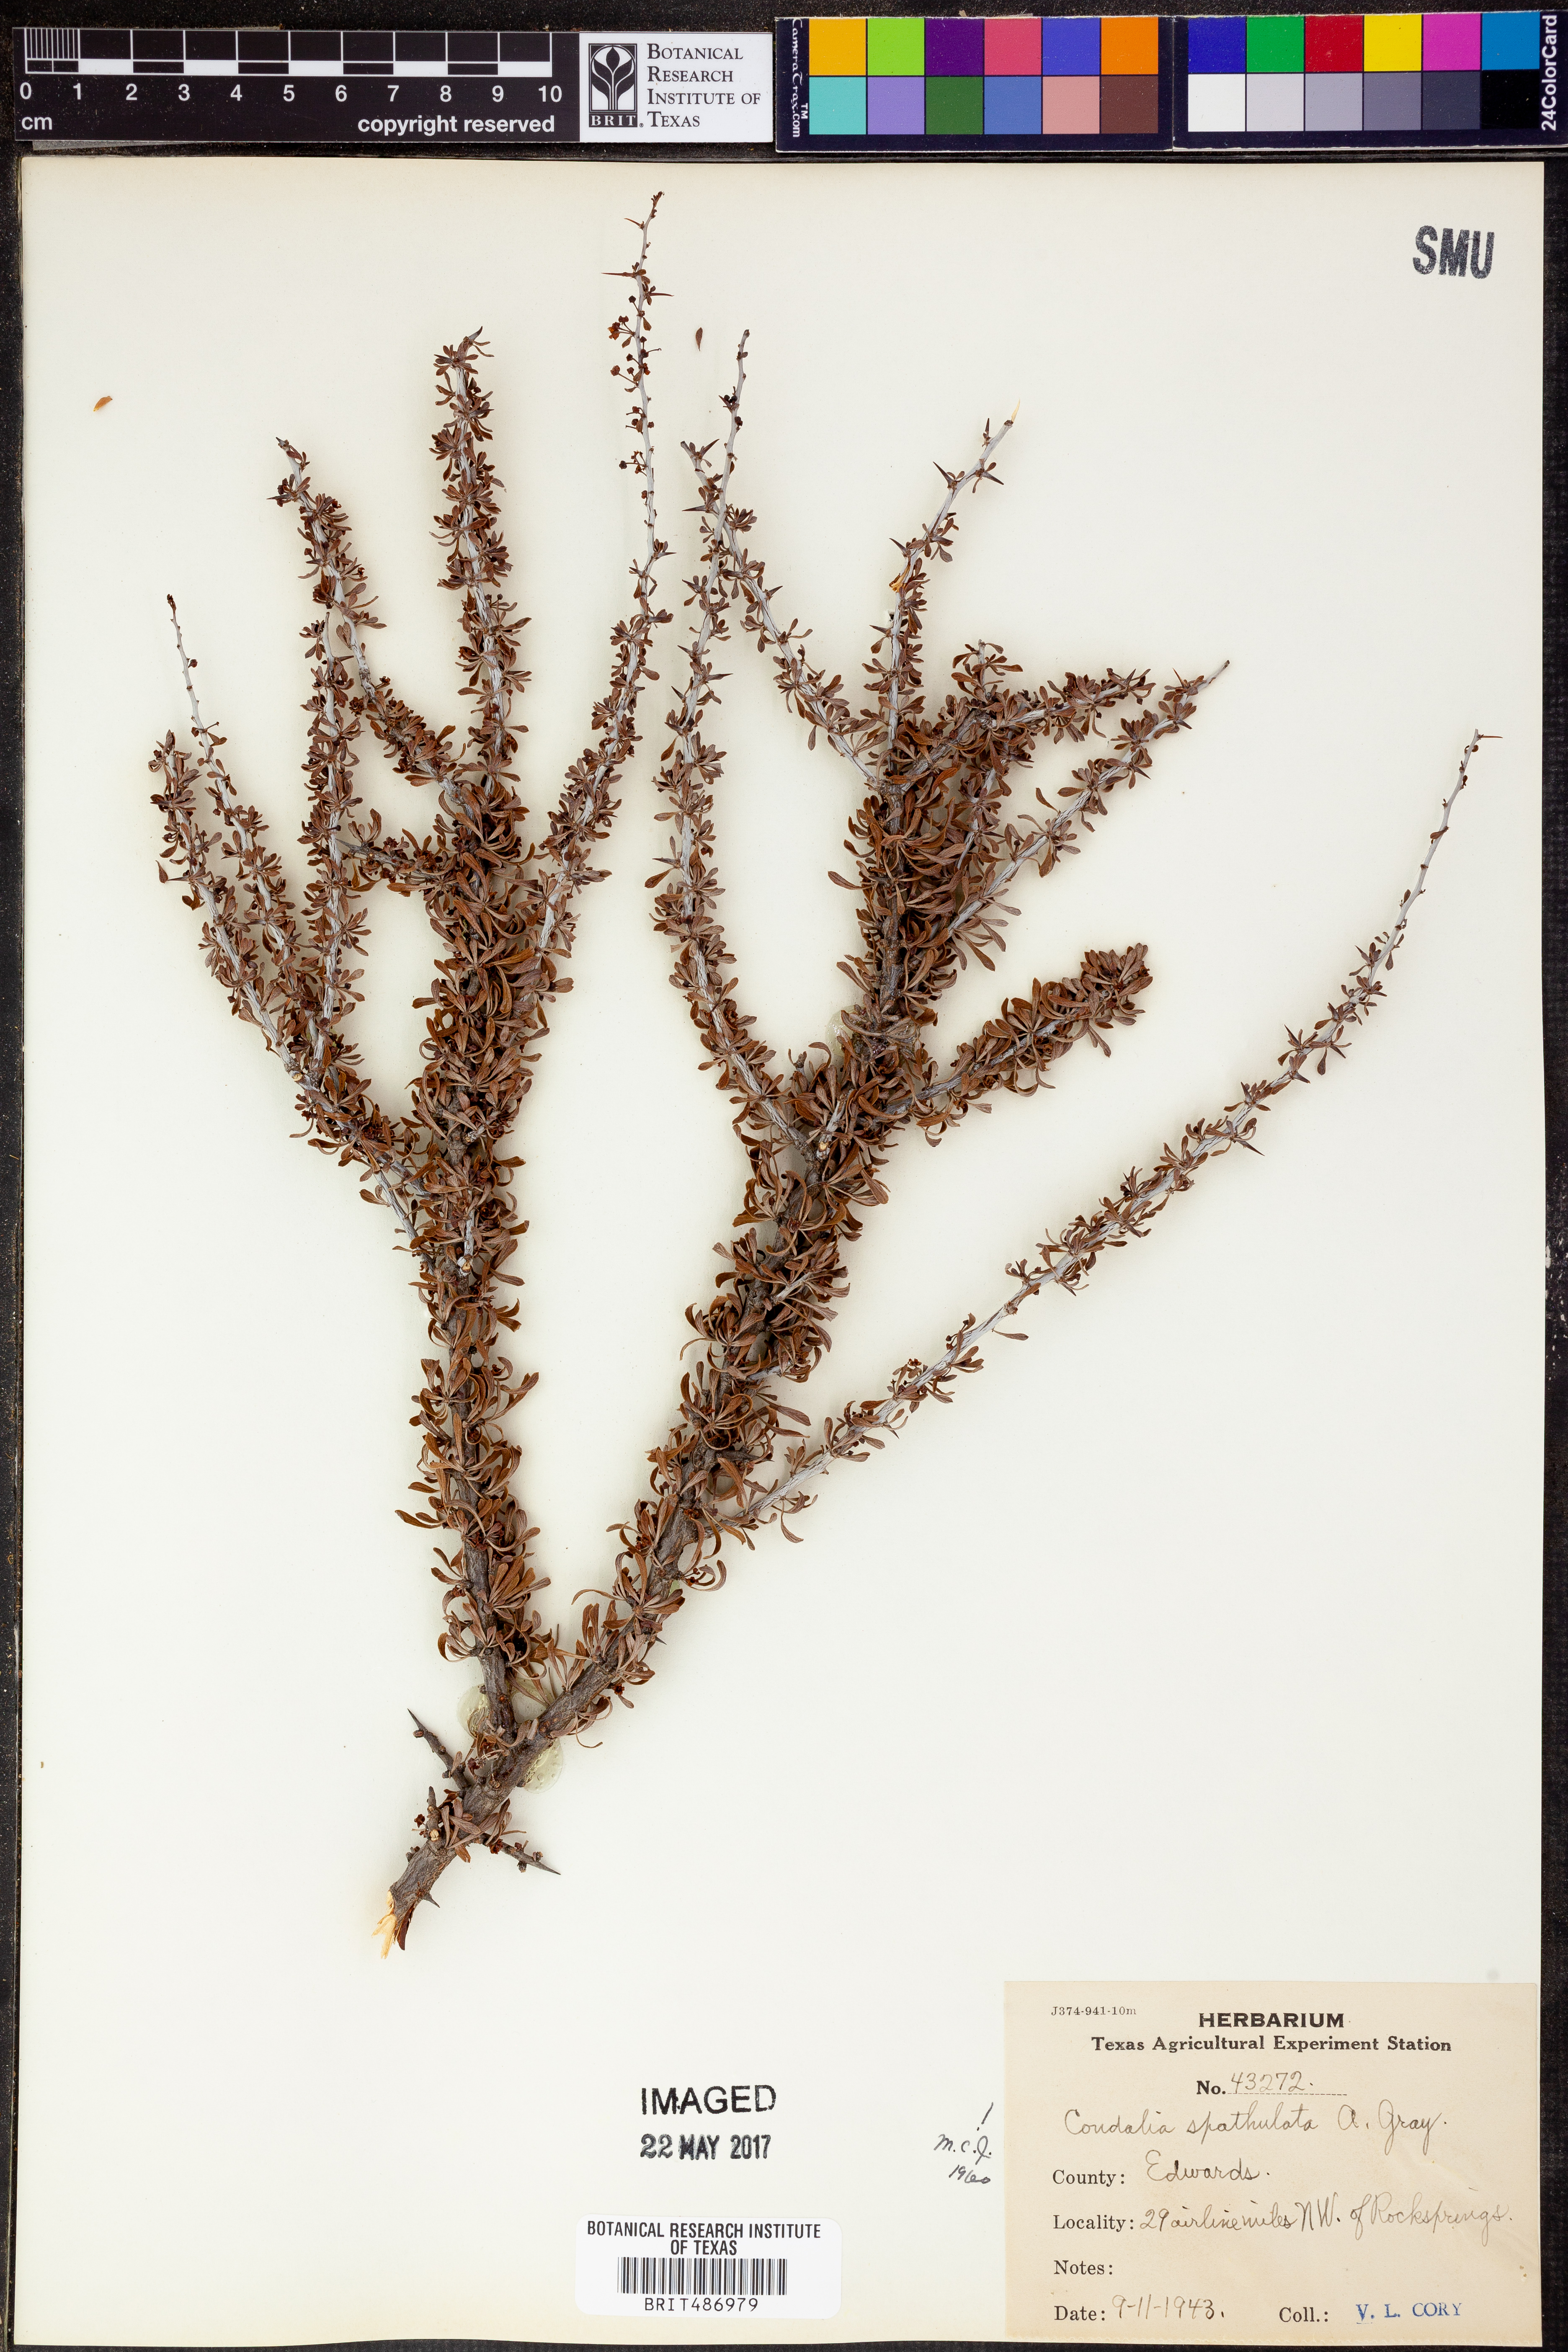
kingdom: Plantae
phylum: Tracheophyta
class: Magnoliopsida
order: Rosales
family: Rhamnaceae
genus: Condalia
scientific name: Condalia spathulata
